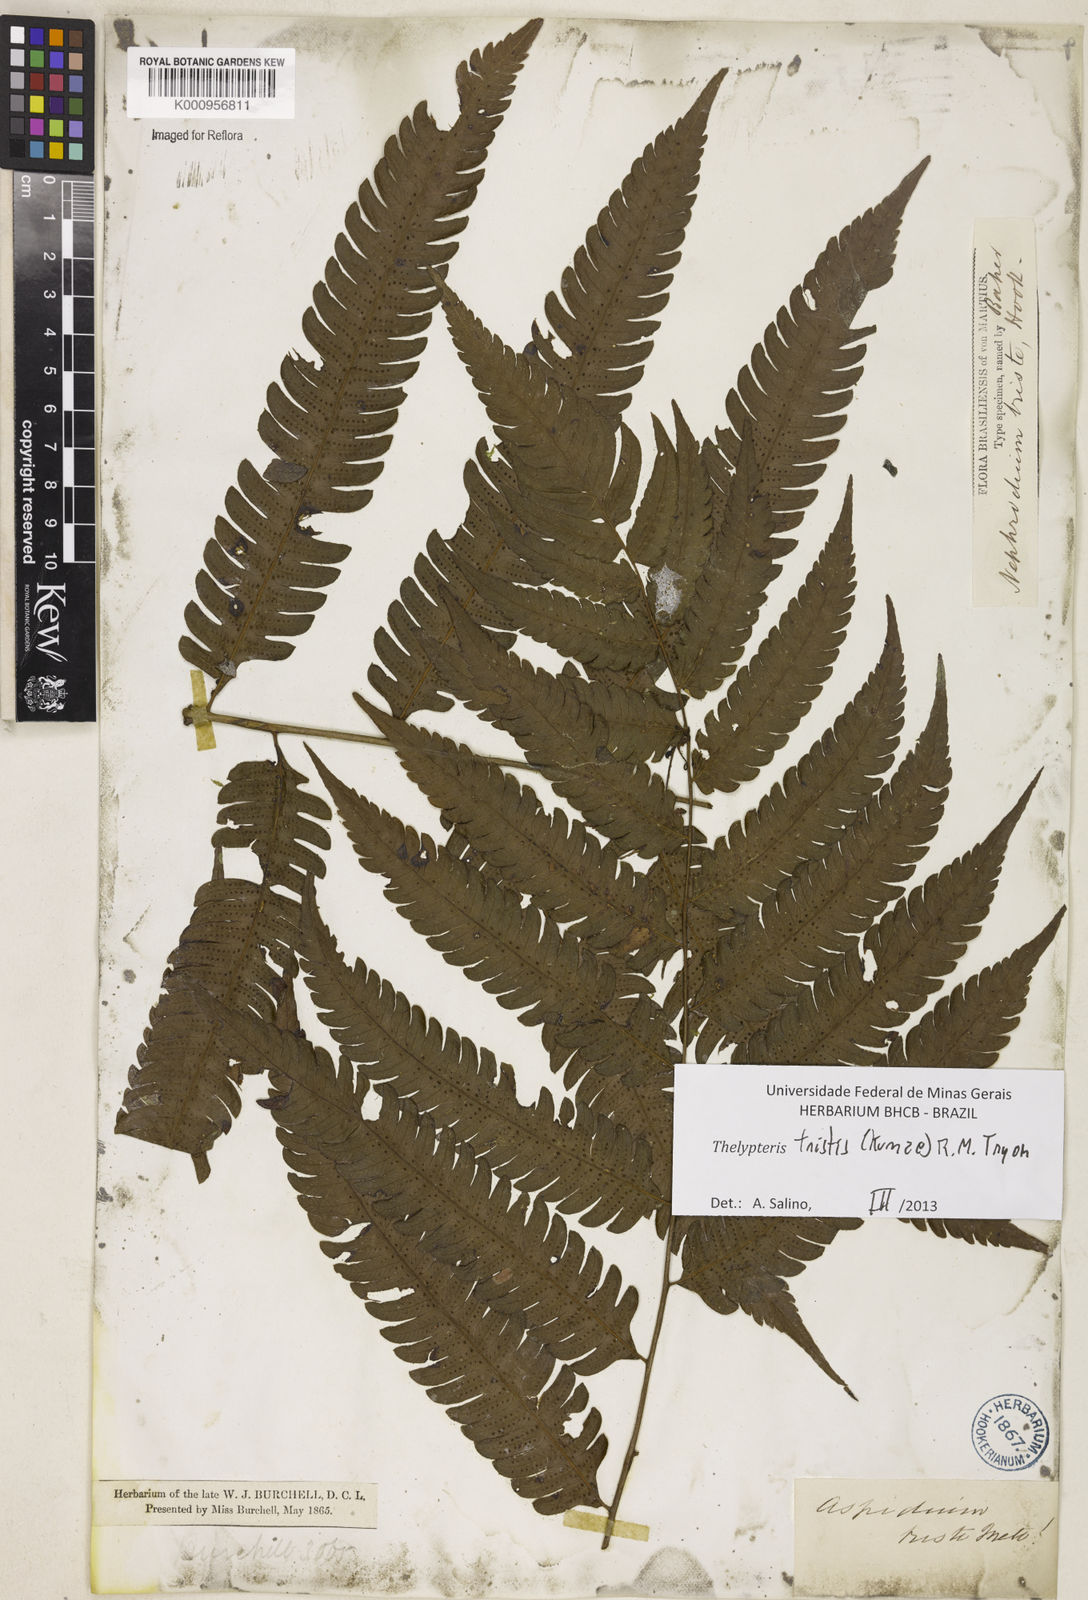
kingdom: Plantae
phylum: Tracheophyta
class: Polypodiopsida
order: Polypodiales
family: Thelypteridaceae
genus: Goniopteris
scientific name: Goniopteris tristis
